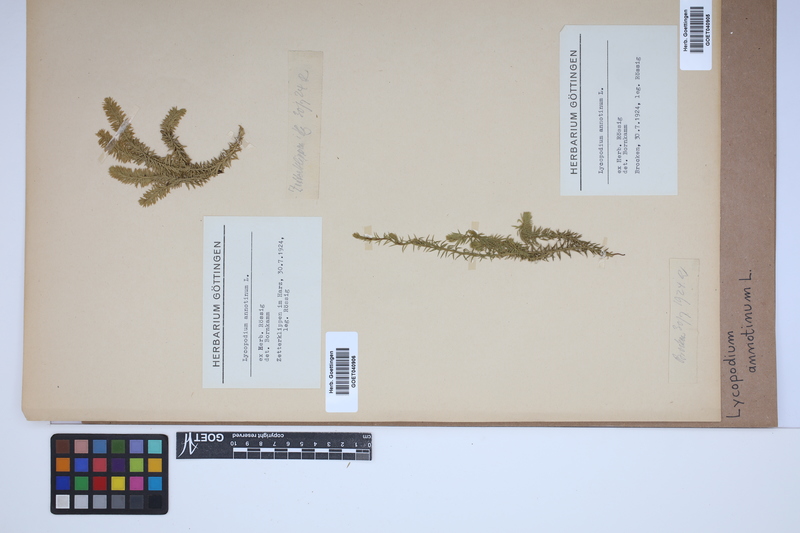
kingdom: Plantae
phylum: Tracheophyta
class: Lycopodiopsida
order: Lycopodiales
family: Lycopodiaceae
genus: Spinulum
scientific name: Spinulum annotinum
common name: Interrupted club-moss
